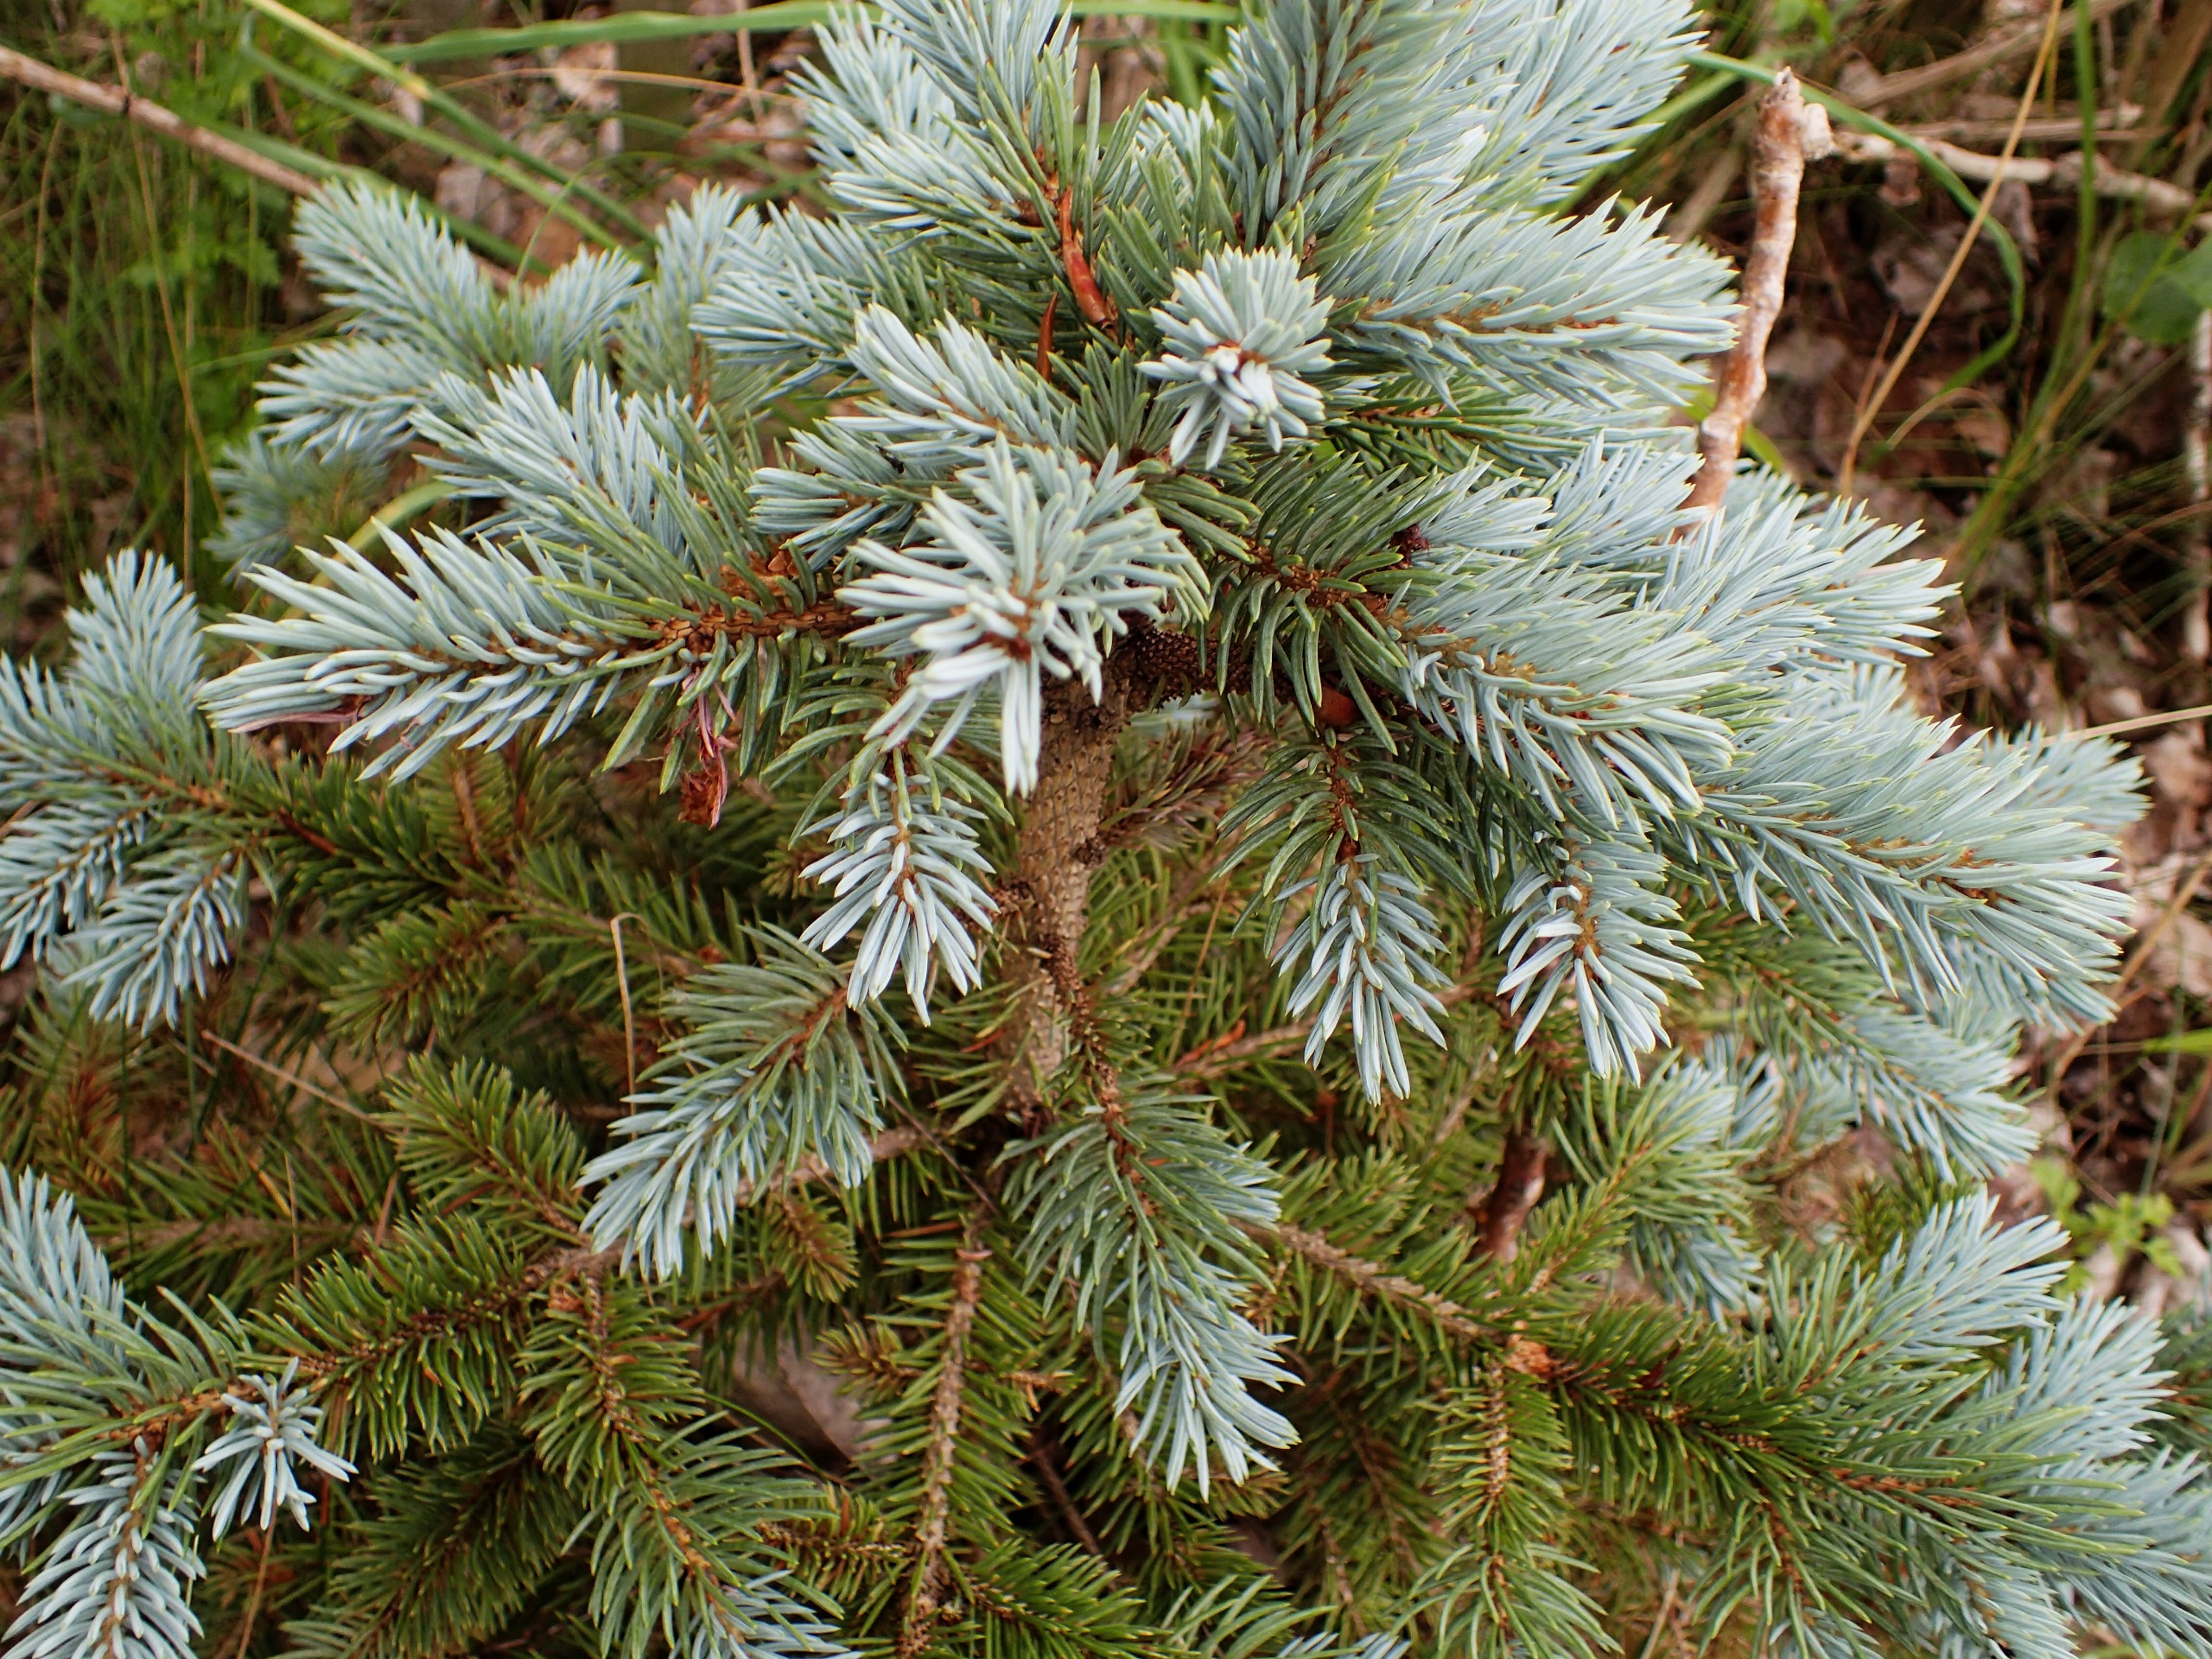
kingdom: Plantae
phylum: Tracheophyta
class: Pinopsida
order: Pinales
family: Pinaceae
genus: Abies
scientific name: Abies procera
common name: Sølvgran
